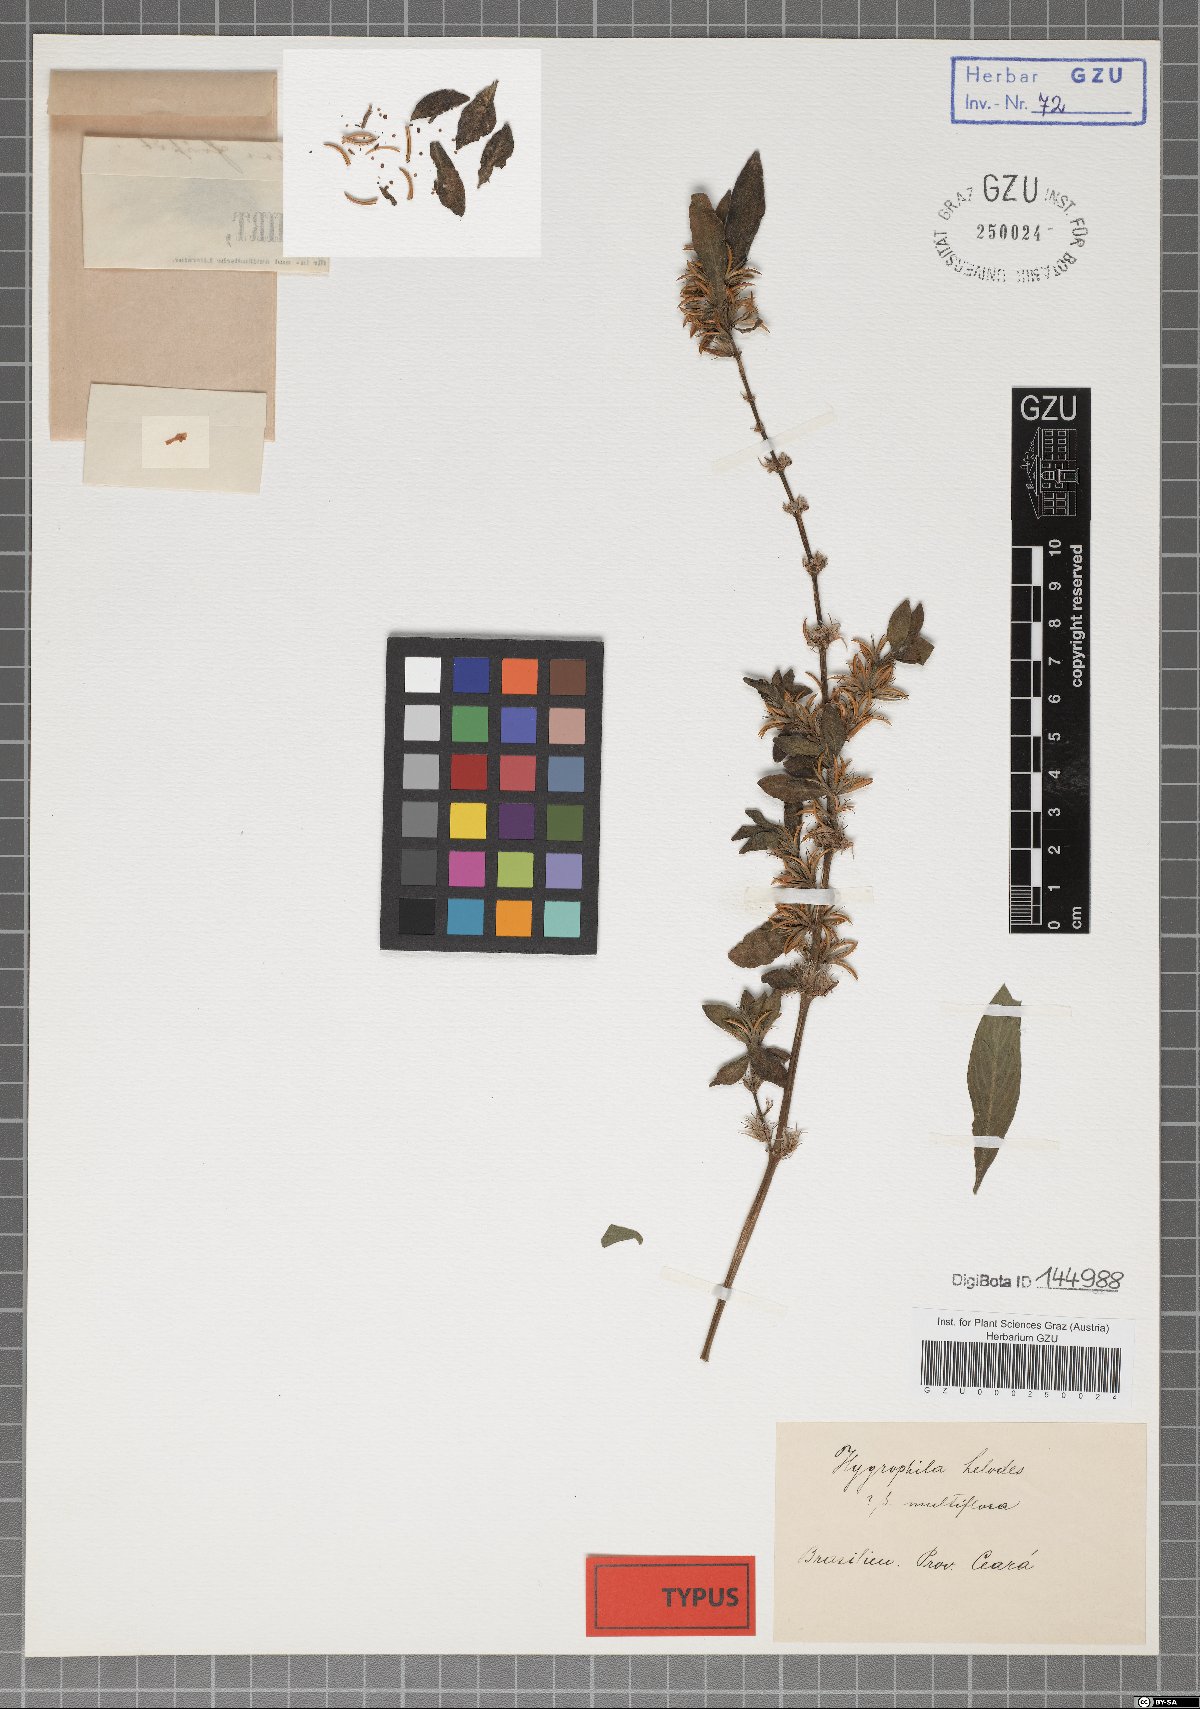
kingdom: Plantae
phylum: Tracheophyta
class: Magnoliopsida
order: Lamiales
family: Acanthaceae
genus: Hygrophila
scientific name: Hygrophila costata
